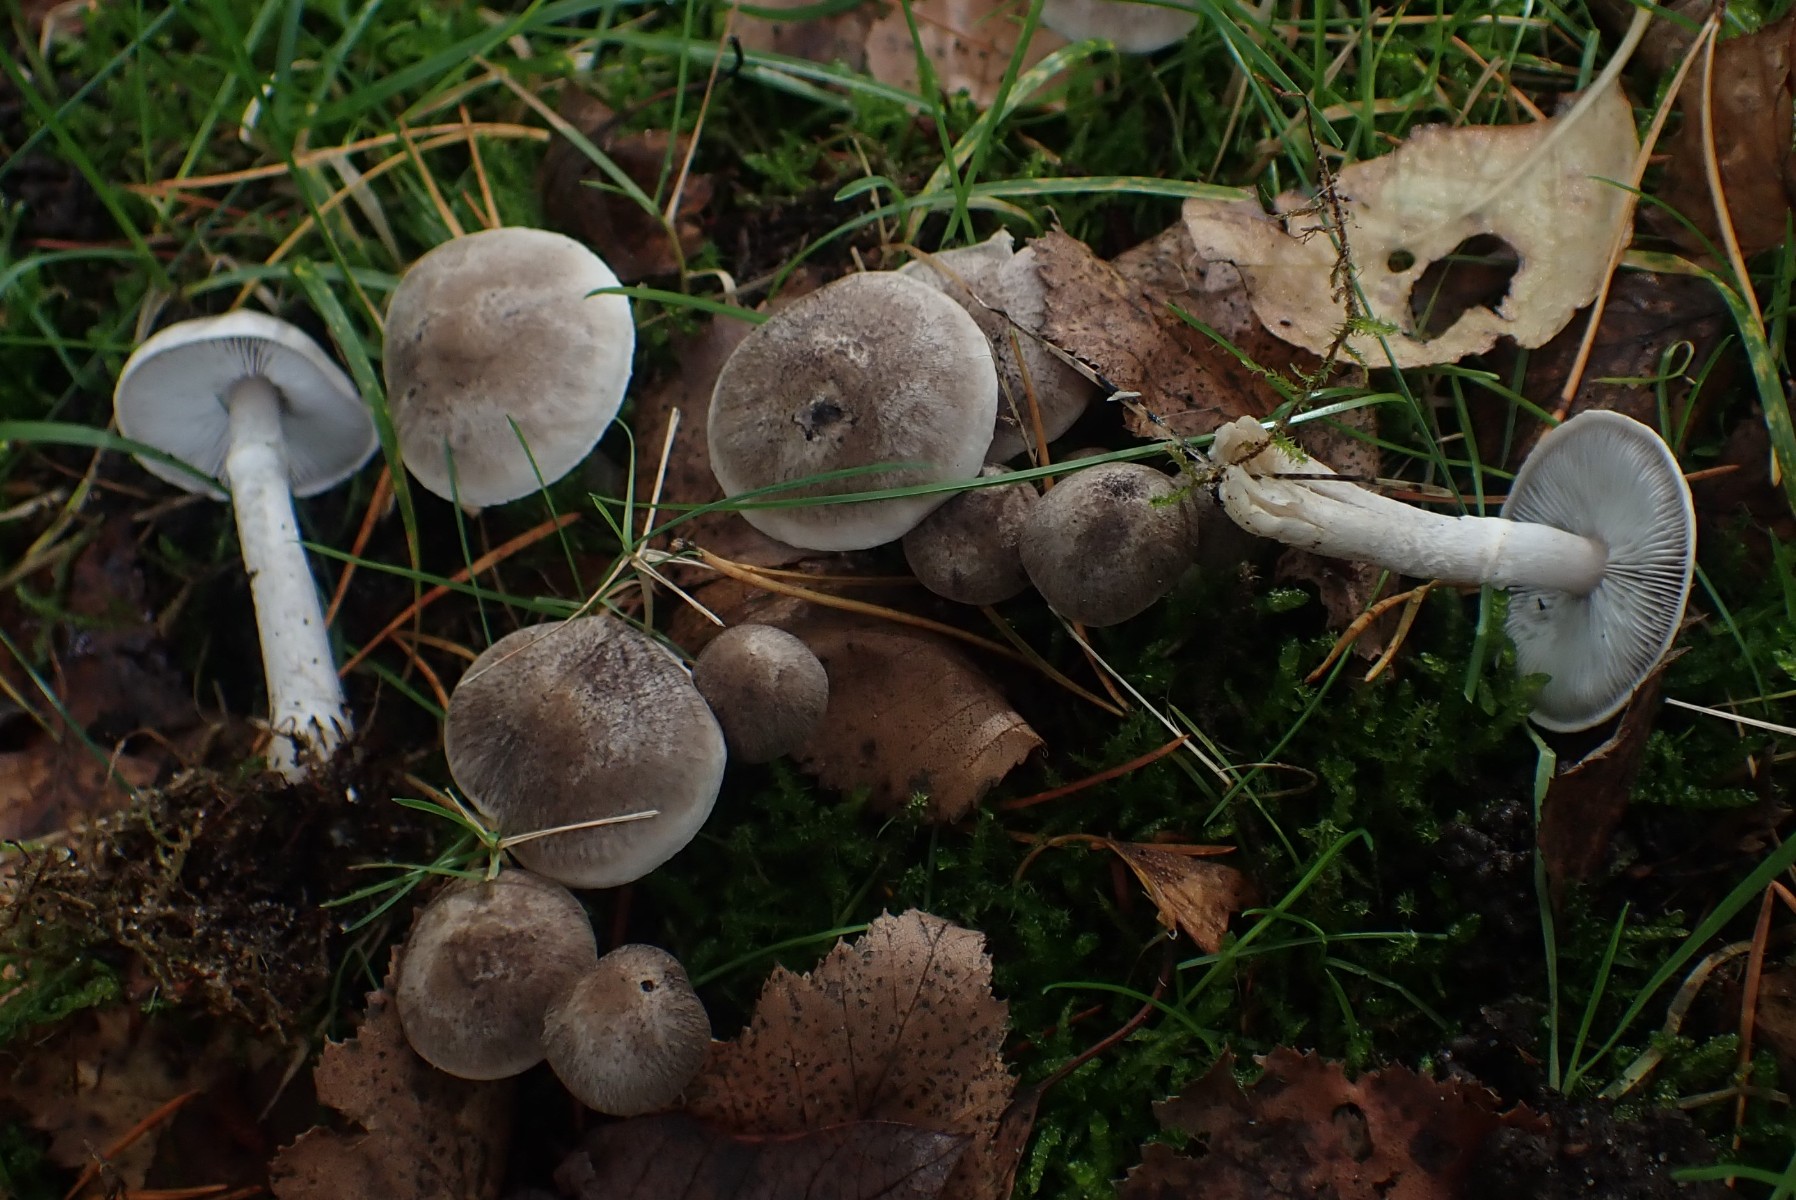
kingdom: Fungi
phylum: Basidiomycota
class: Agaricomycetes
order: Agaricales
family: Tricholomataceae
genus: Tricholoma
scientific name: Tricholoma cingulatum
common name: ring-ridderhat
